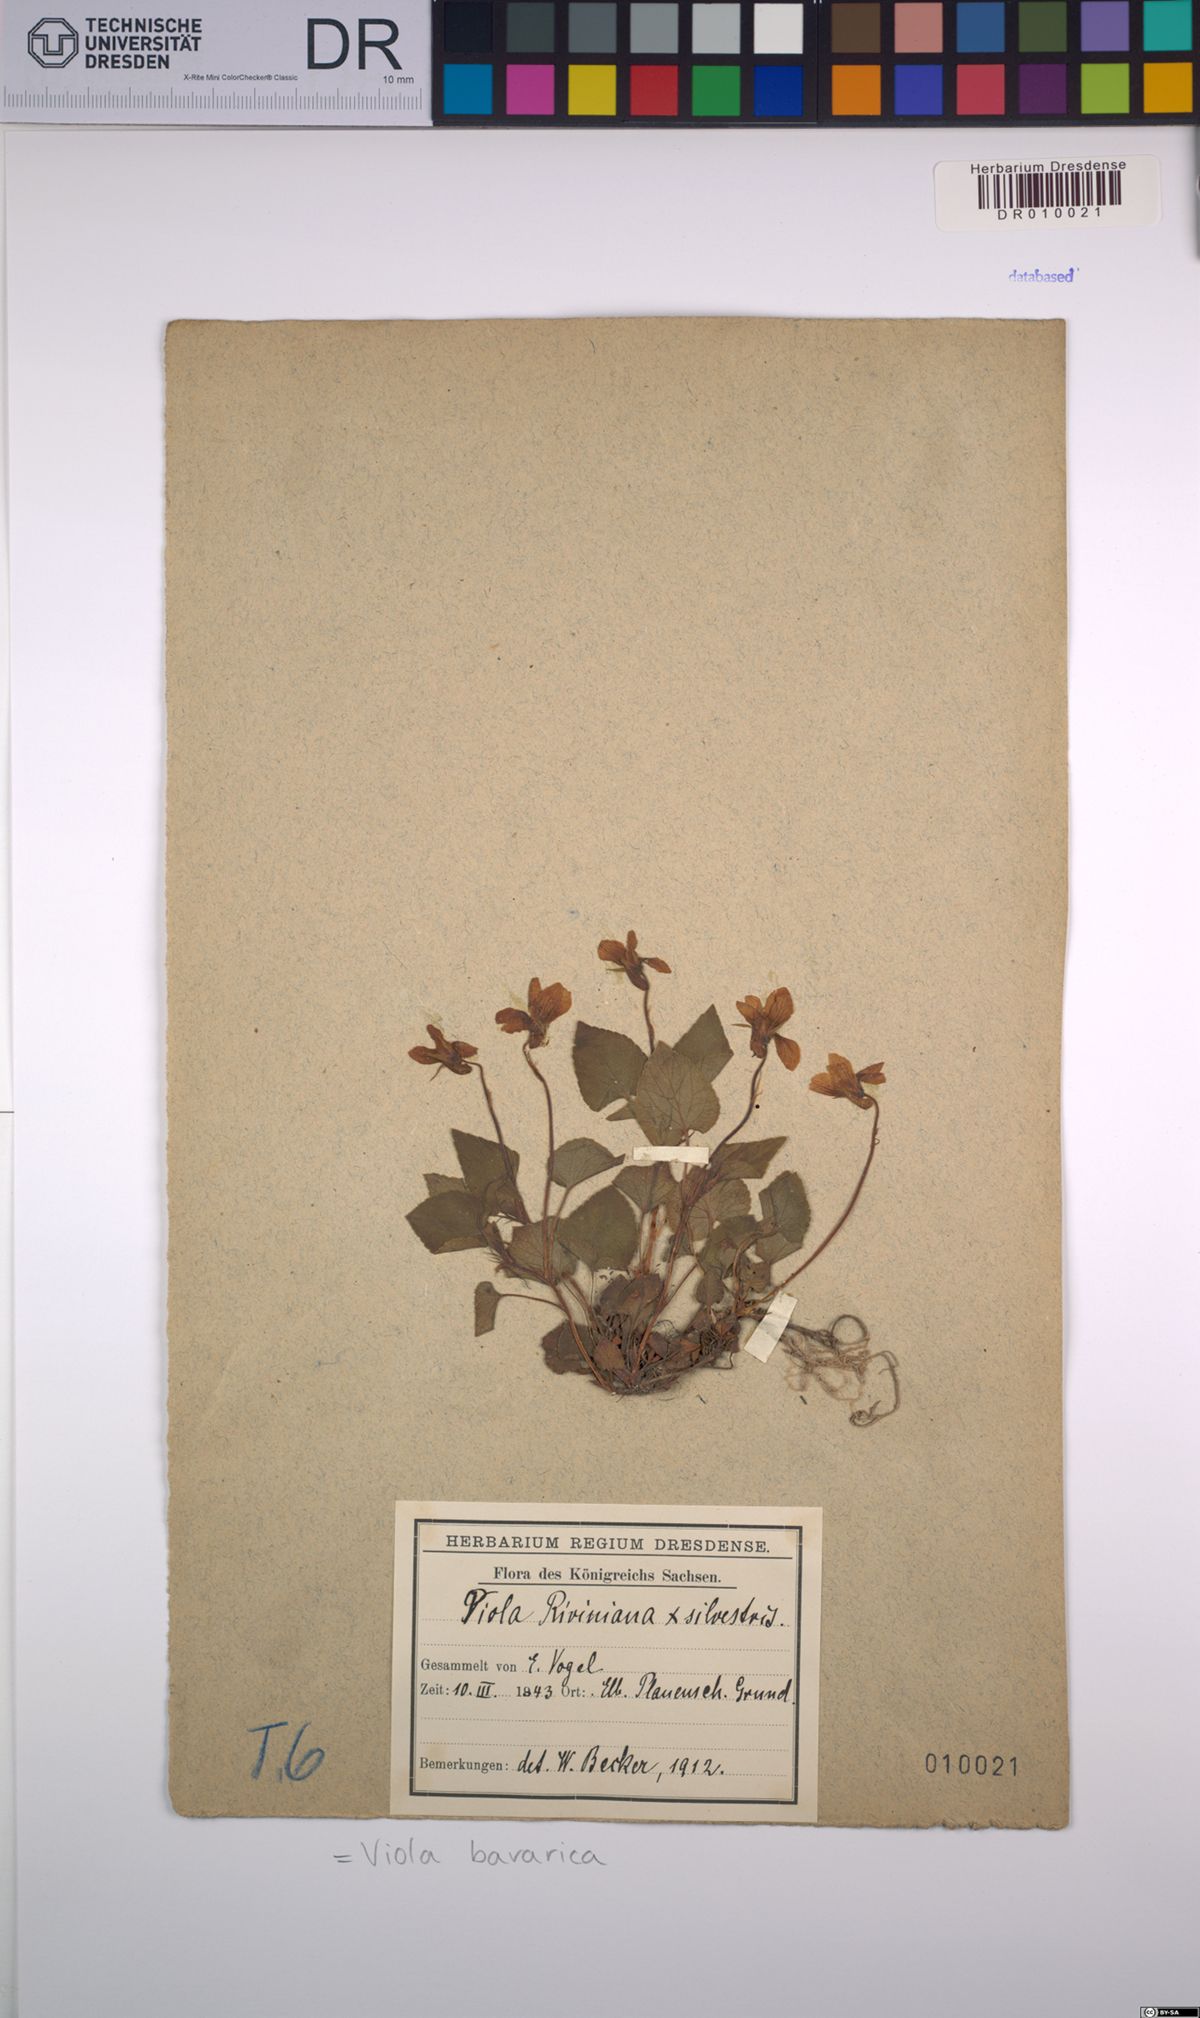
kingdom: Plantae
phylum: Tracheophyta
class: Magnoliopsida
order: Malpighiales
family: Violaceae
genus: Viola
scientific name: Viola bavarica
